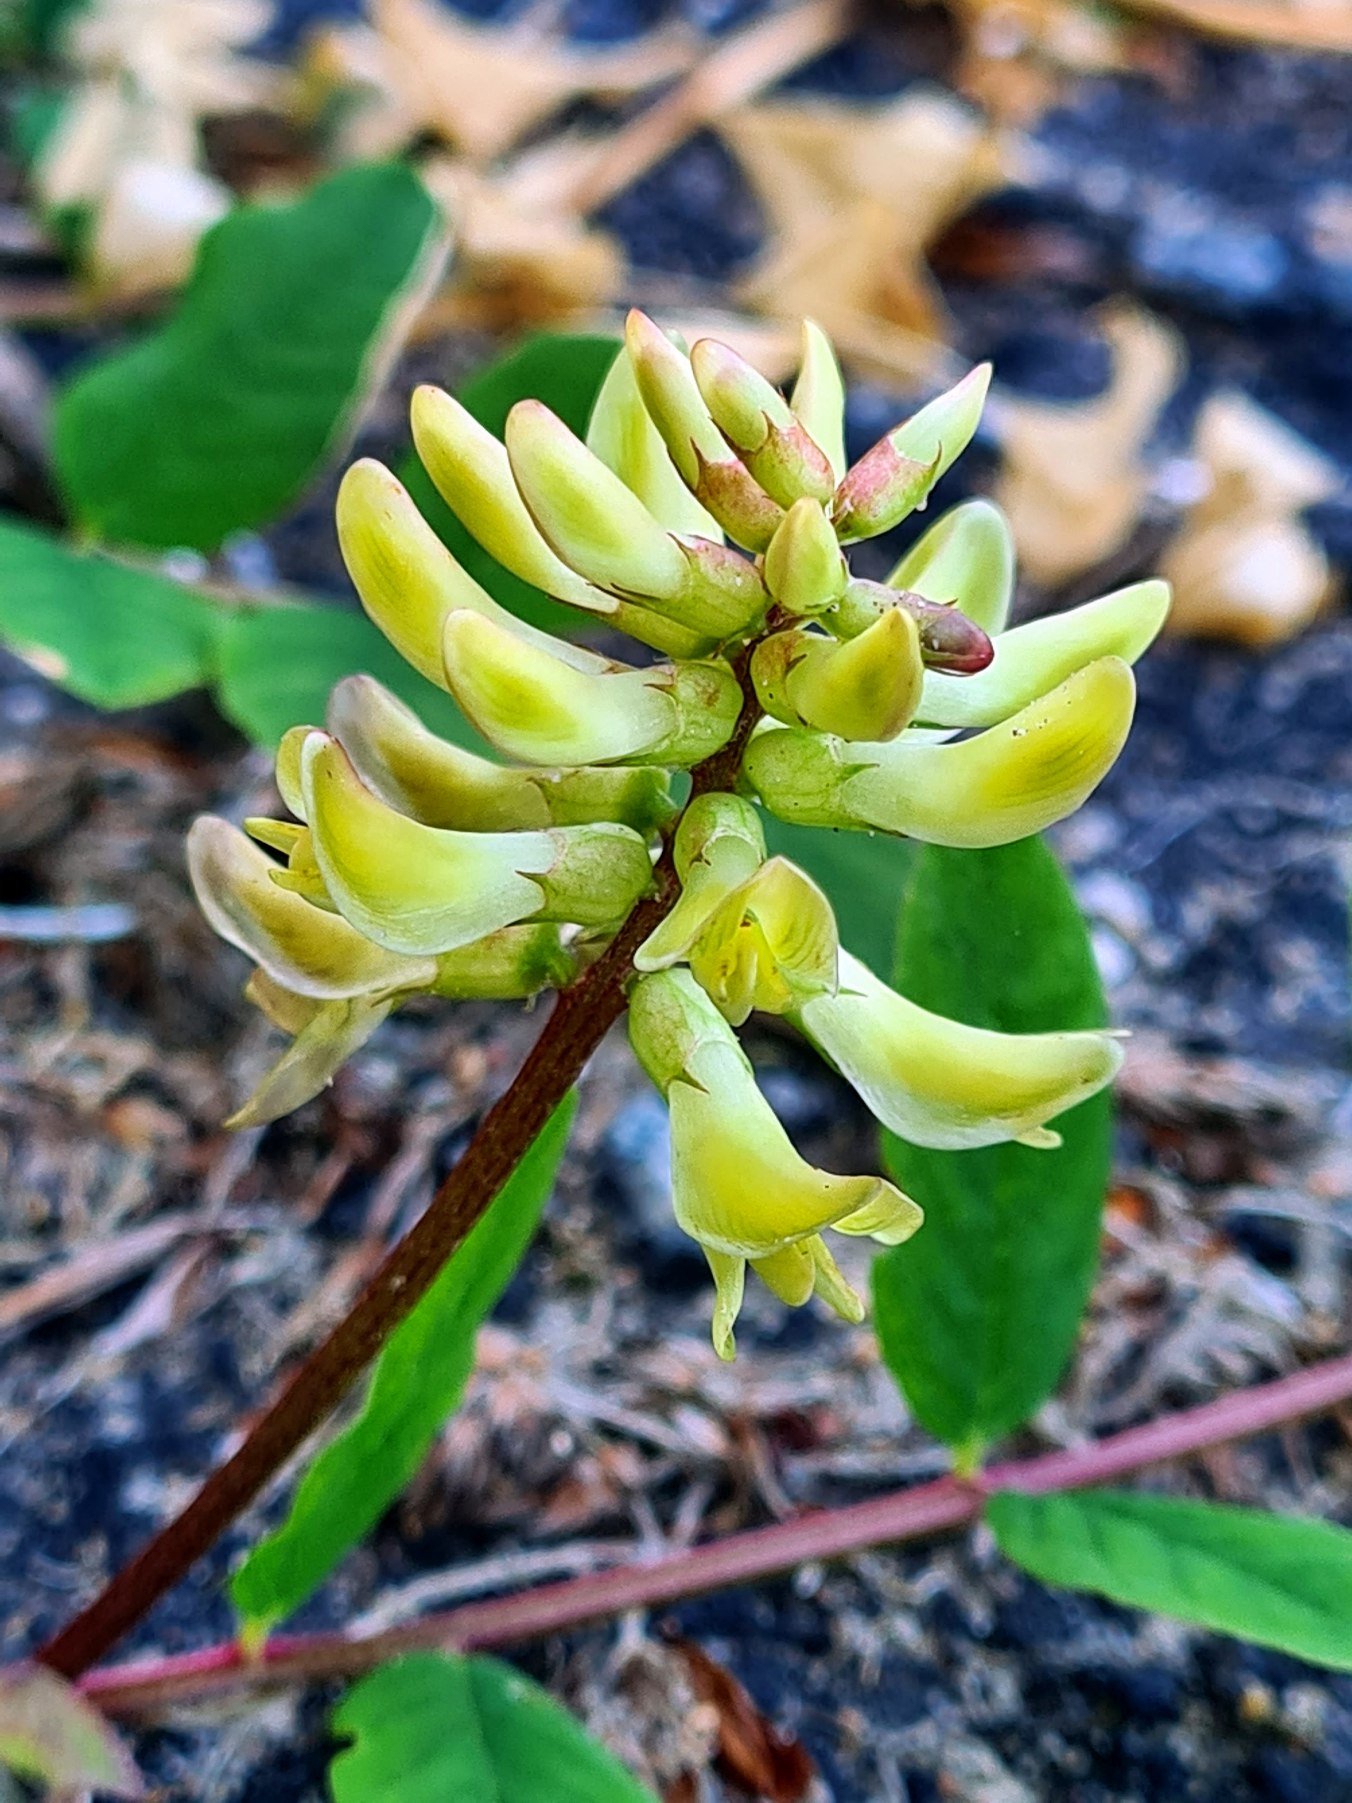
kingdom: Plantae
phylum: Tracheophyta
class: Magnoliopsida
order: Fabales
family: Fabaceae
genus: Astragalus
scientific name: Astragalus glycyphyllos
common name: Sød astragel
